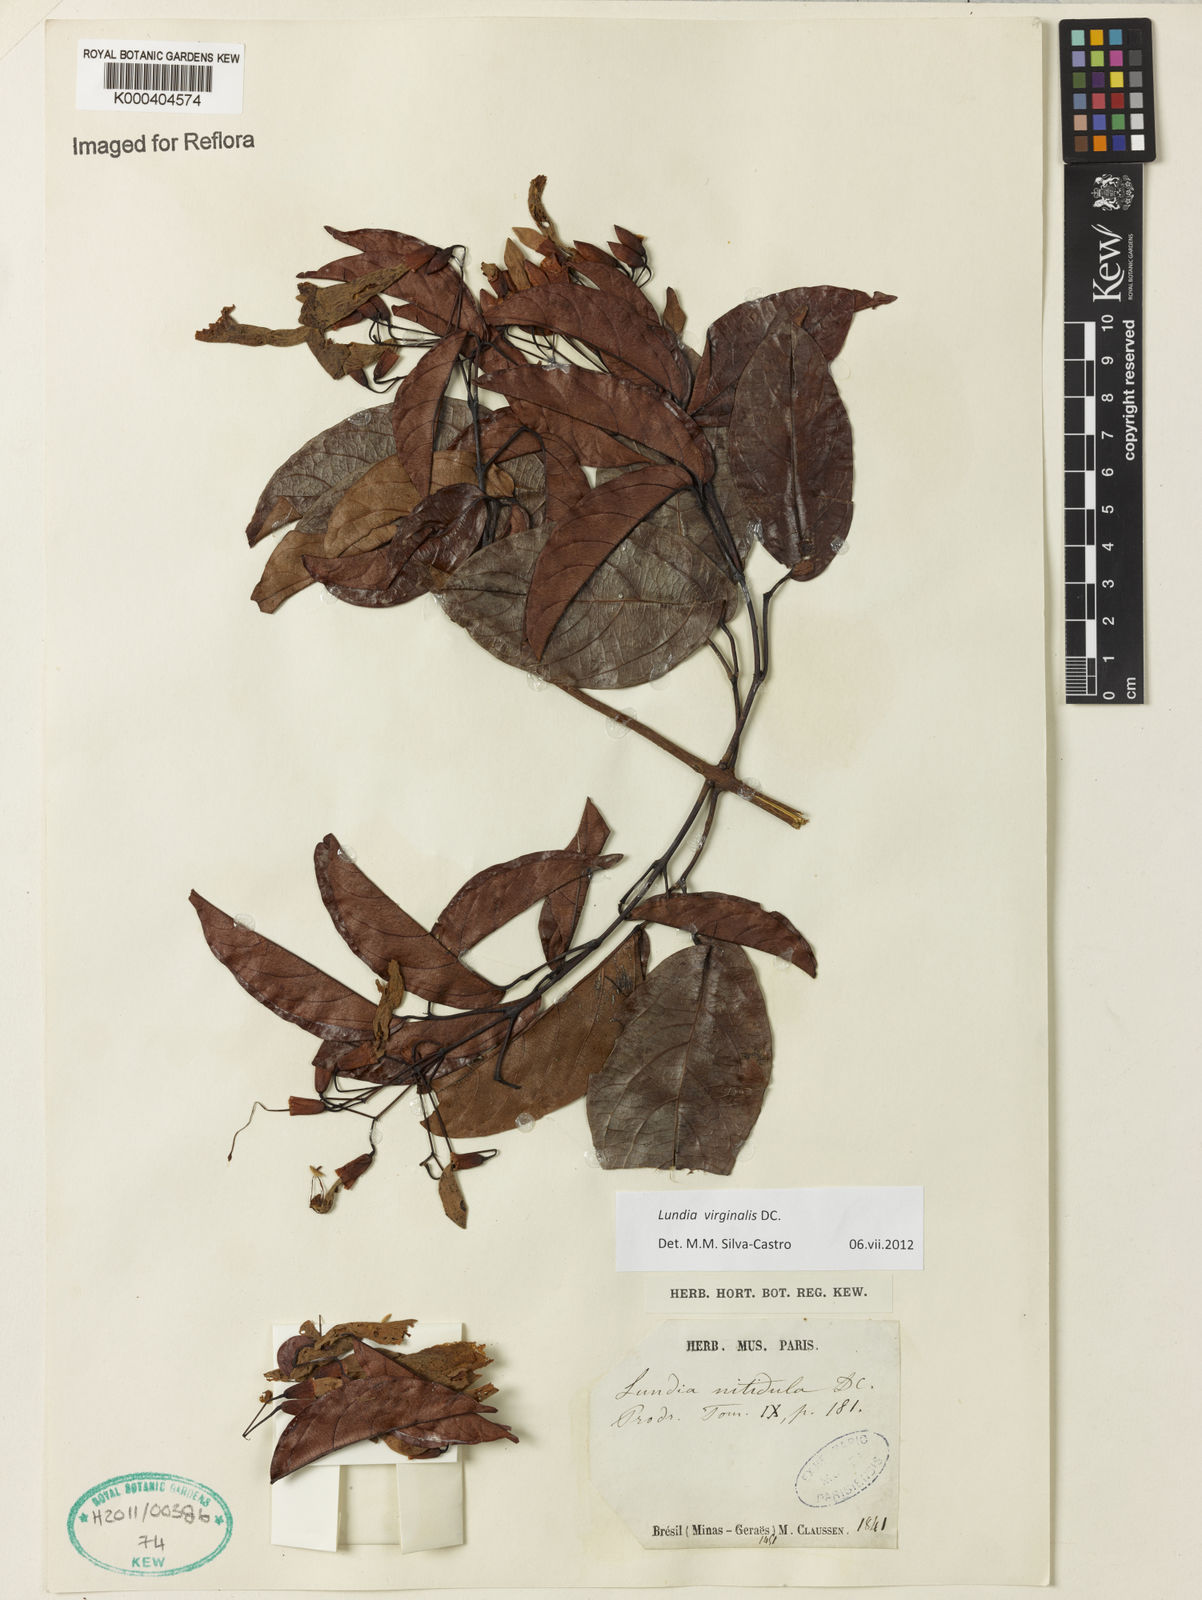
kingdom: Plantae
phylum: Tracheophyta
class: Magnoliopsida
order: Lamiales
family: Bignoniaceae
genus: Lundia
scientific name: Lundia virginalis
